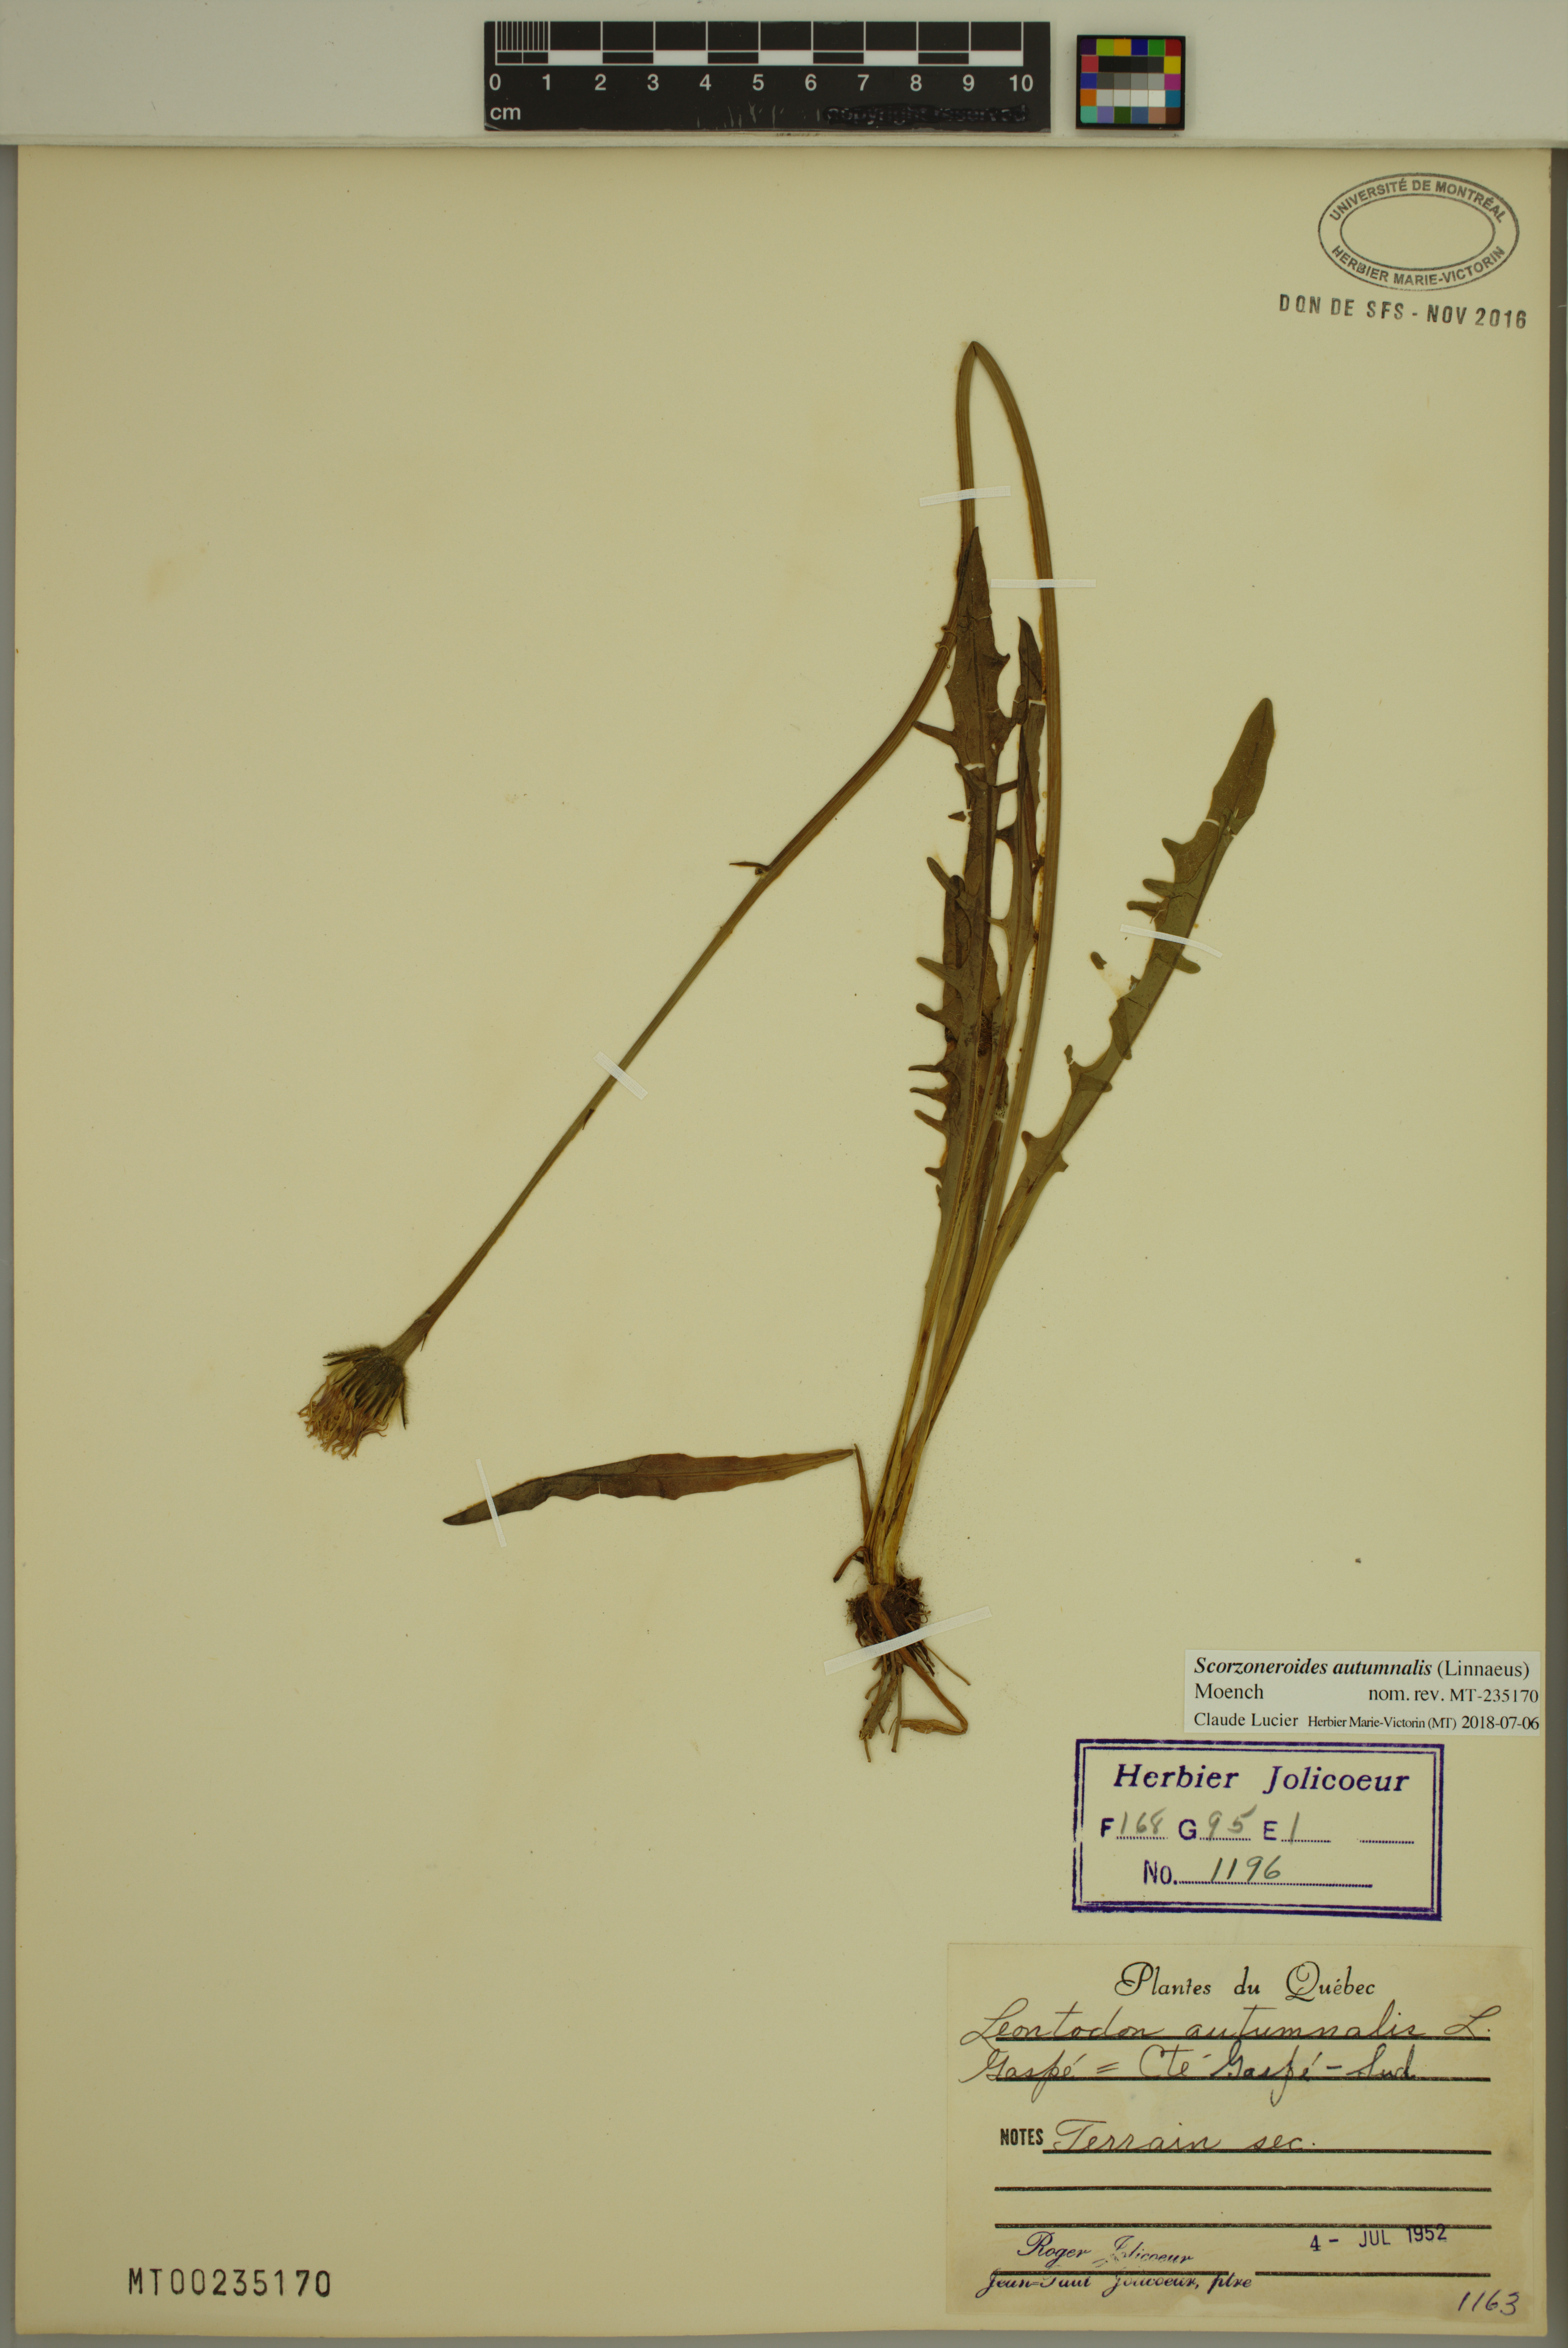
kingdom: Plantae
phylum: Tracheophyta
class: Magnoliopsida
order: Asterales
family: Asteraceae
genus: Scorzoneroides
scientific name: Scorzoneroides autumnalis
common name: Autumn hawkbit
